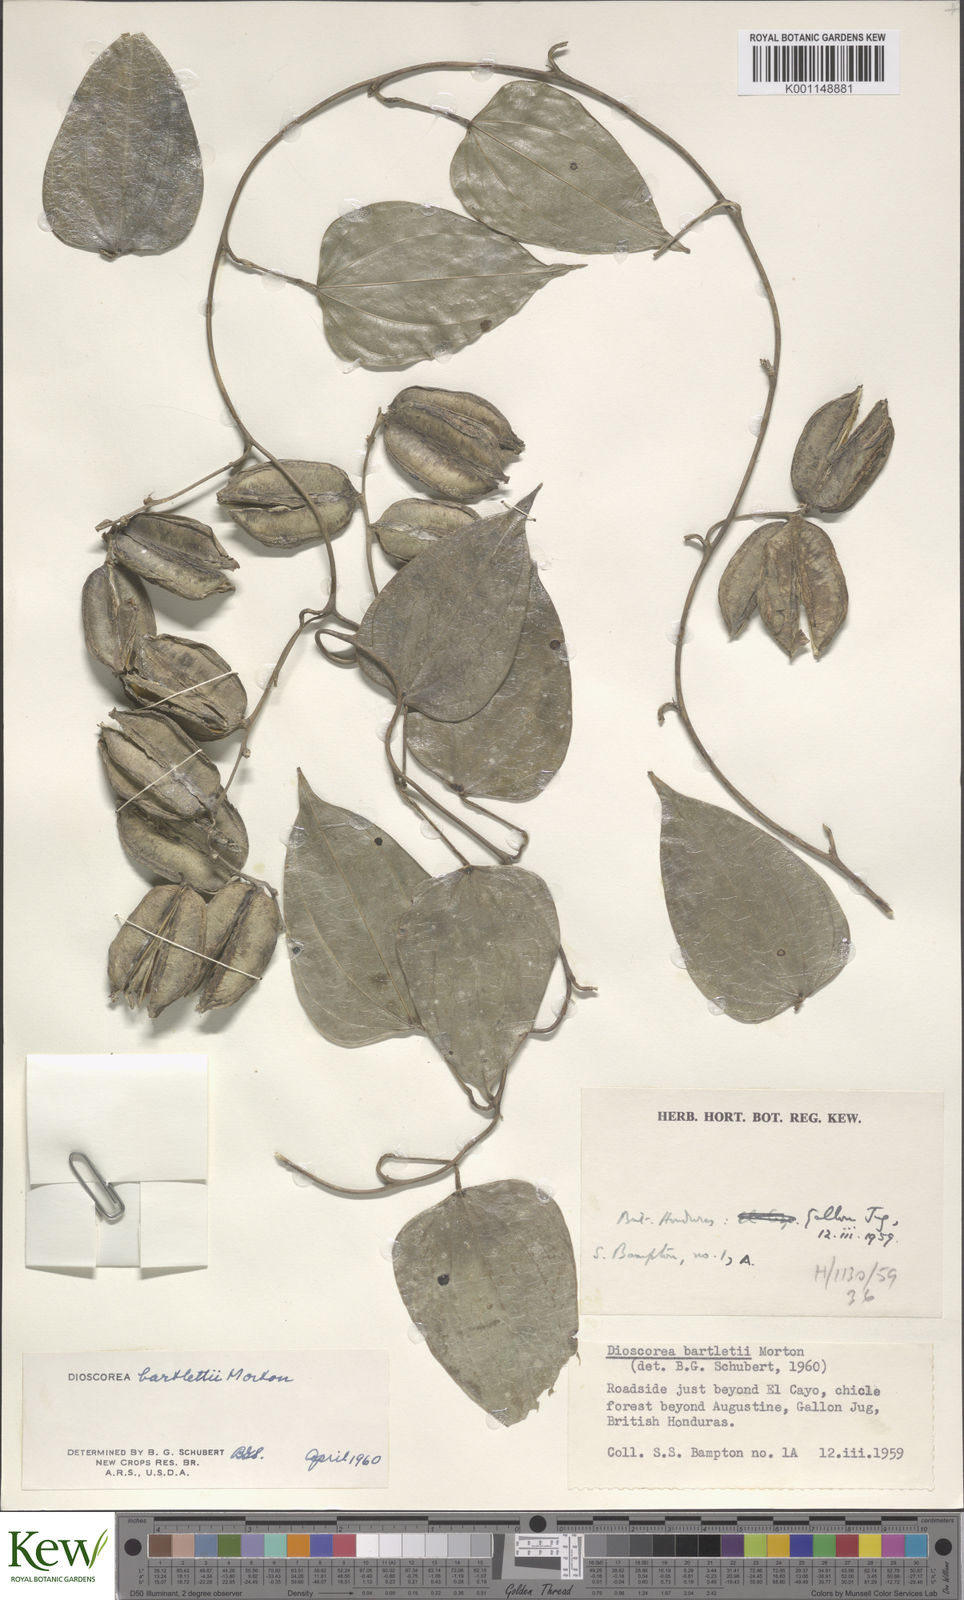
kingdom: Plantae
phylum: Tracheophyta
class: Liliopsida
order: Dioscoreales
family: Dioscoreaceae
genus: Dioscorea
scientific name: Dioscorea bartlettii
